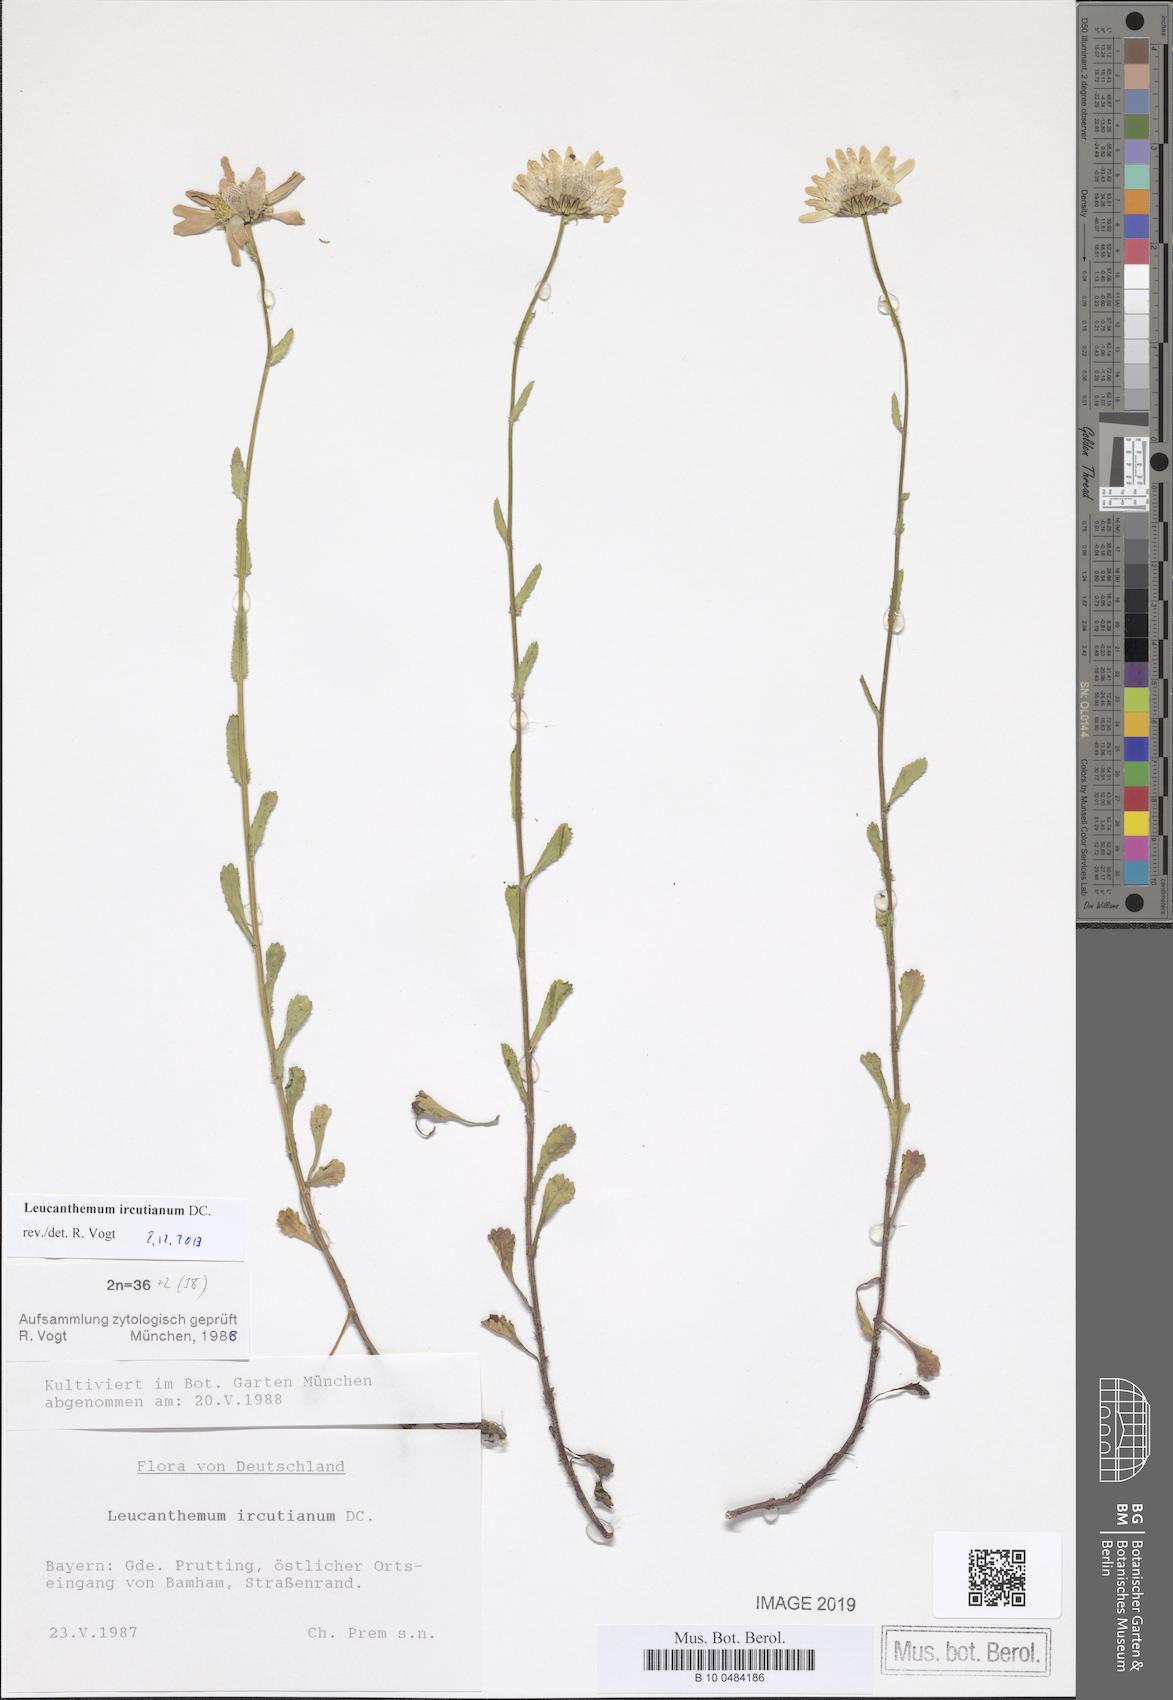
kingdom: Plantae
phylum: Tracheophyta
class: Magnoliopsida
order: Asterales
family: Asteraceae
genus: Leucanthemum
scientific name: Leucanthemum ircutianum
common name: Daisy
